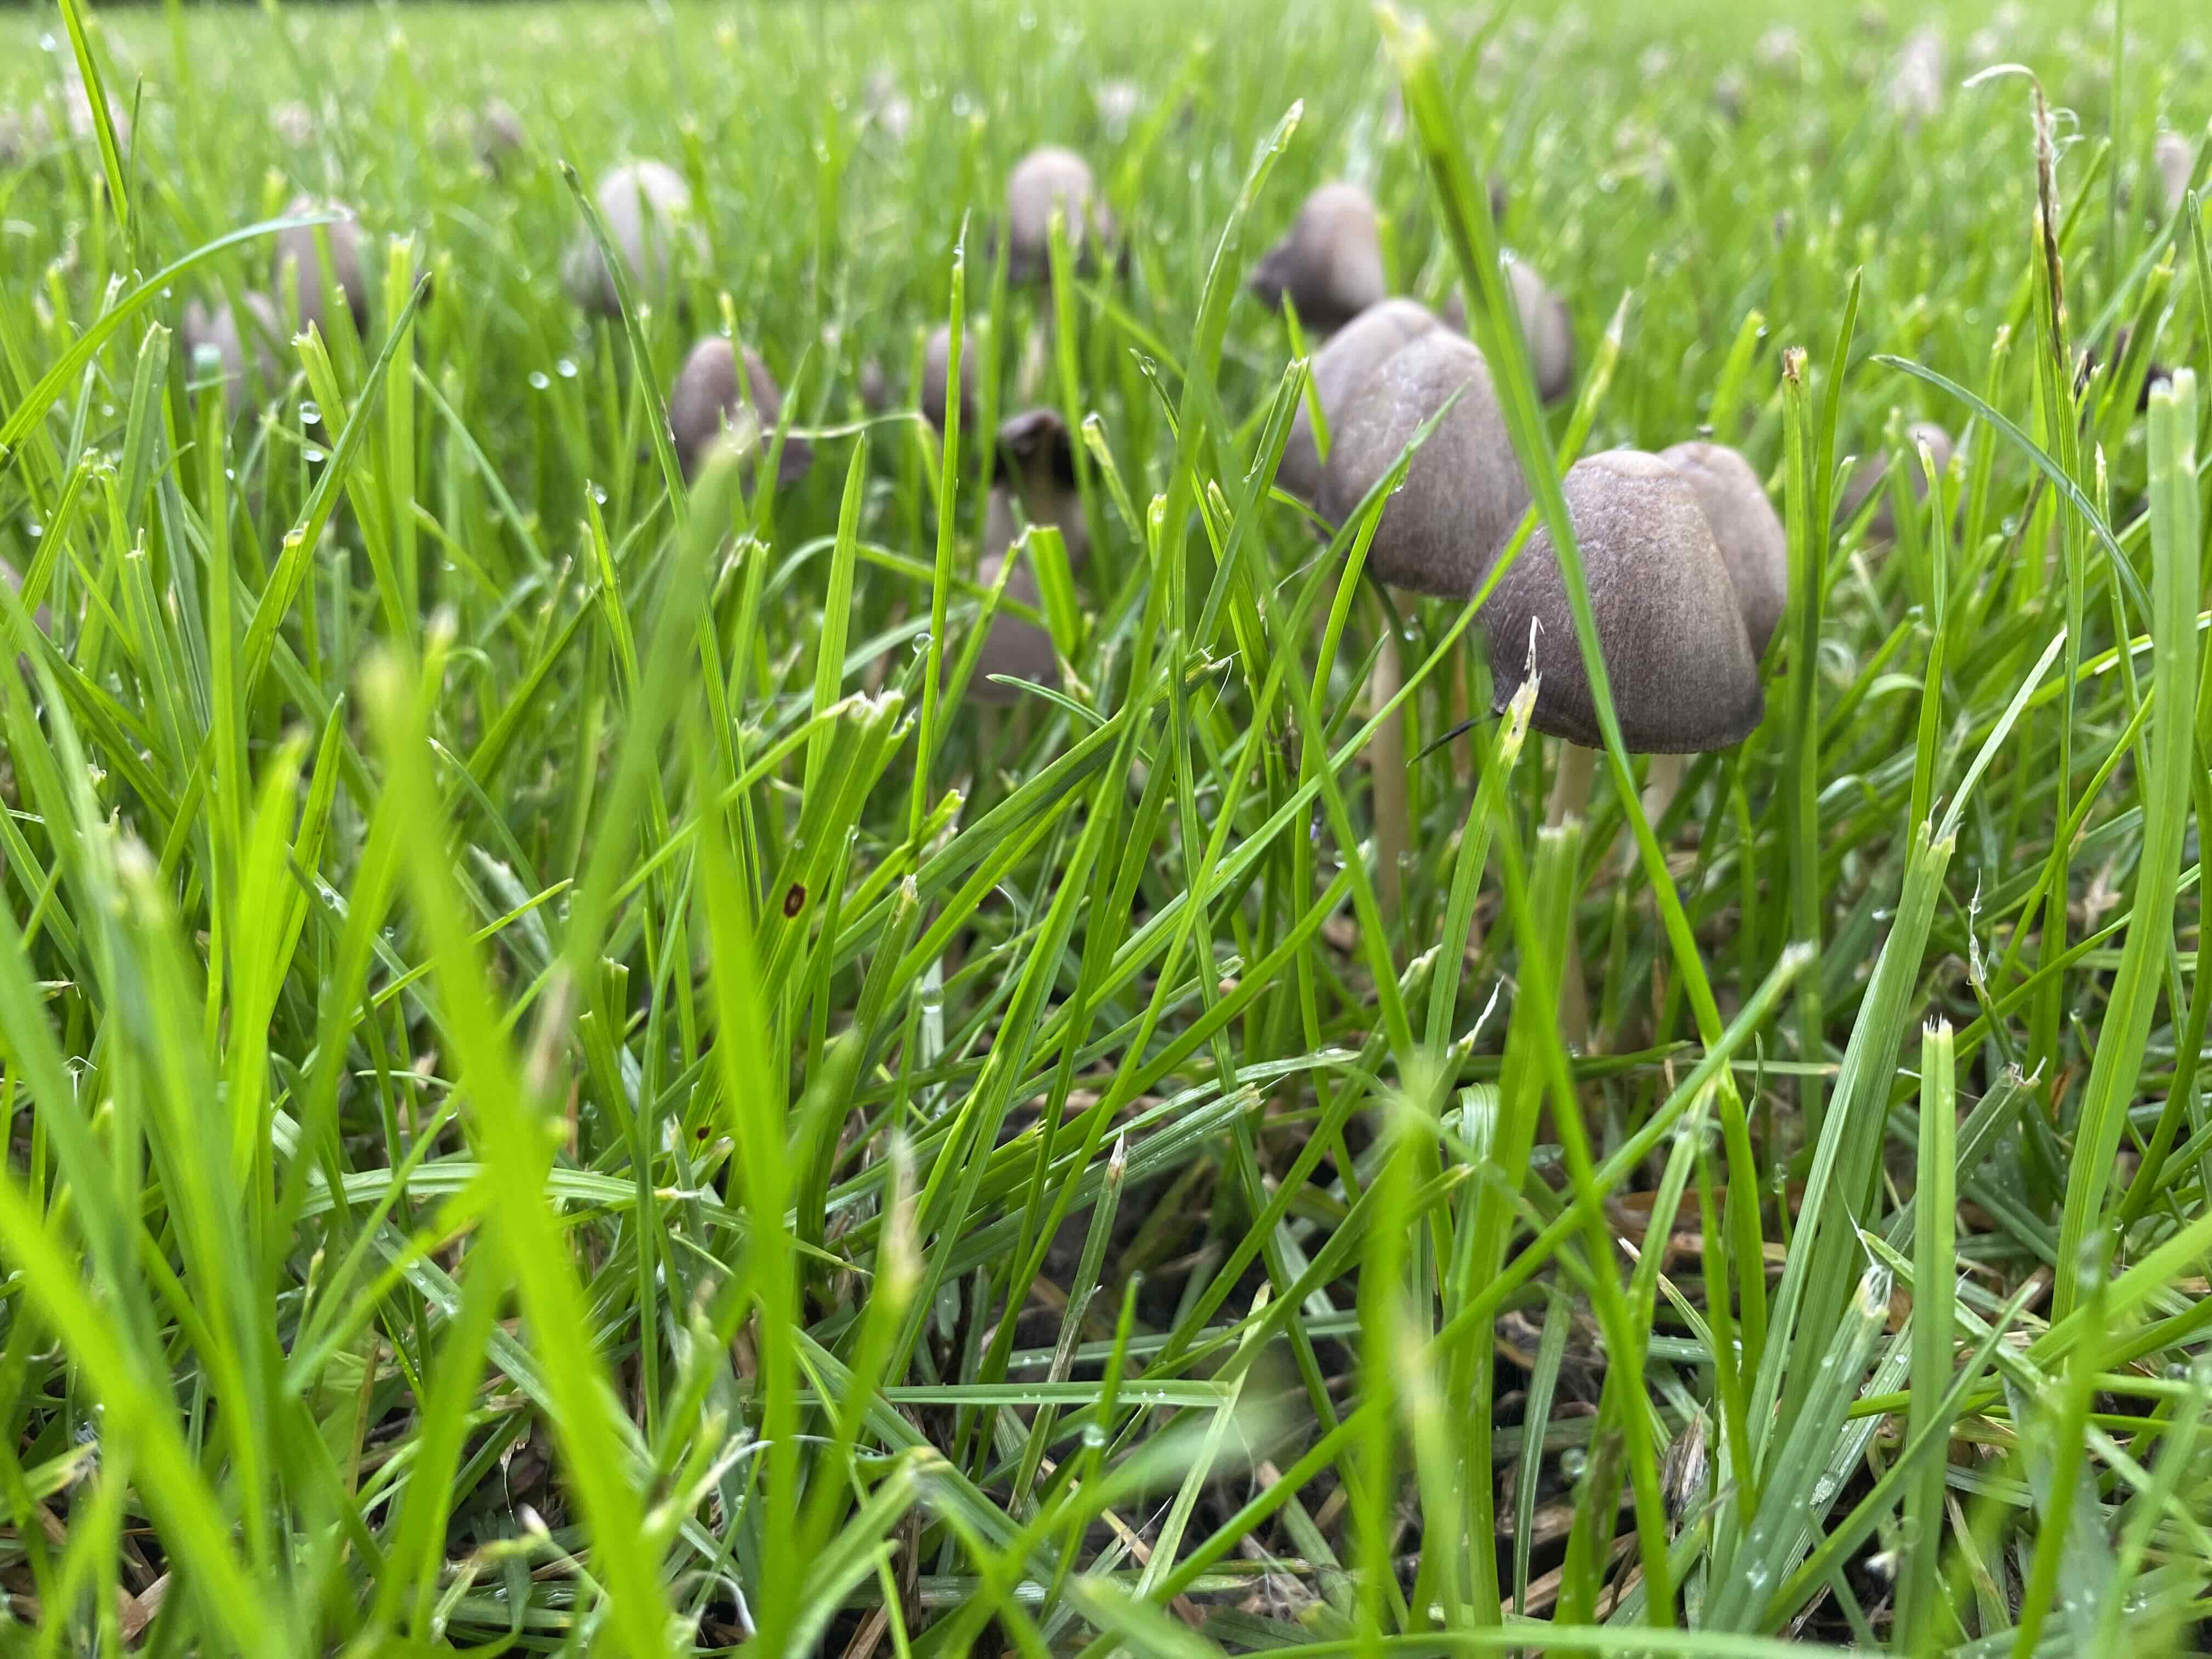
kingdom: Fungi
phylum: Basidiomycota
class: Agaricomycetes
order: Agaricales
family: Bolbitiaceae
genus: Panaeolina
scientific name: Panaeolina foenisecii
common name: høslætsvamp
